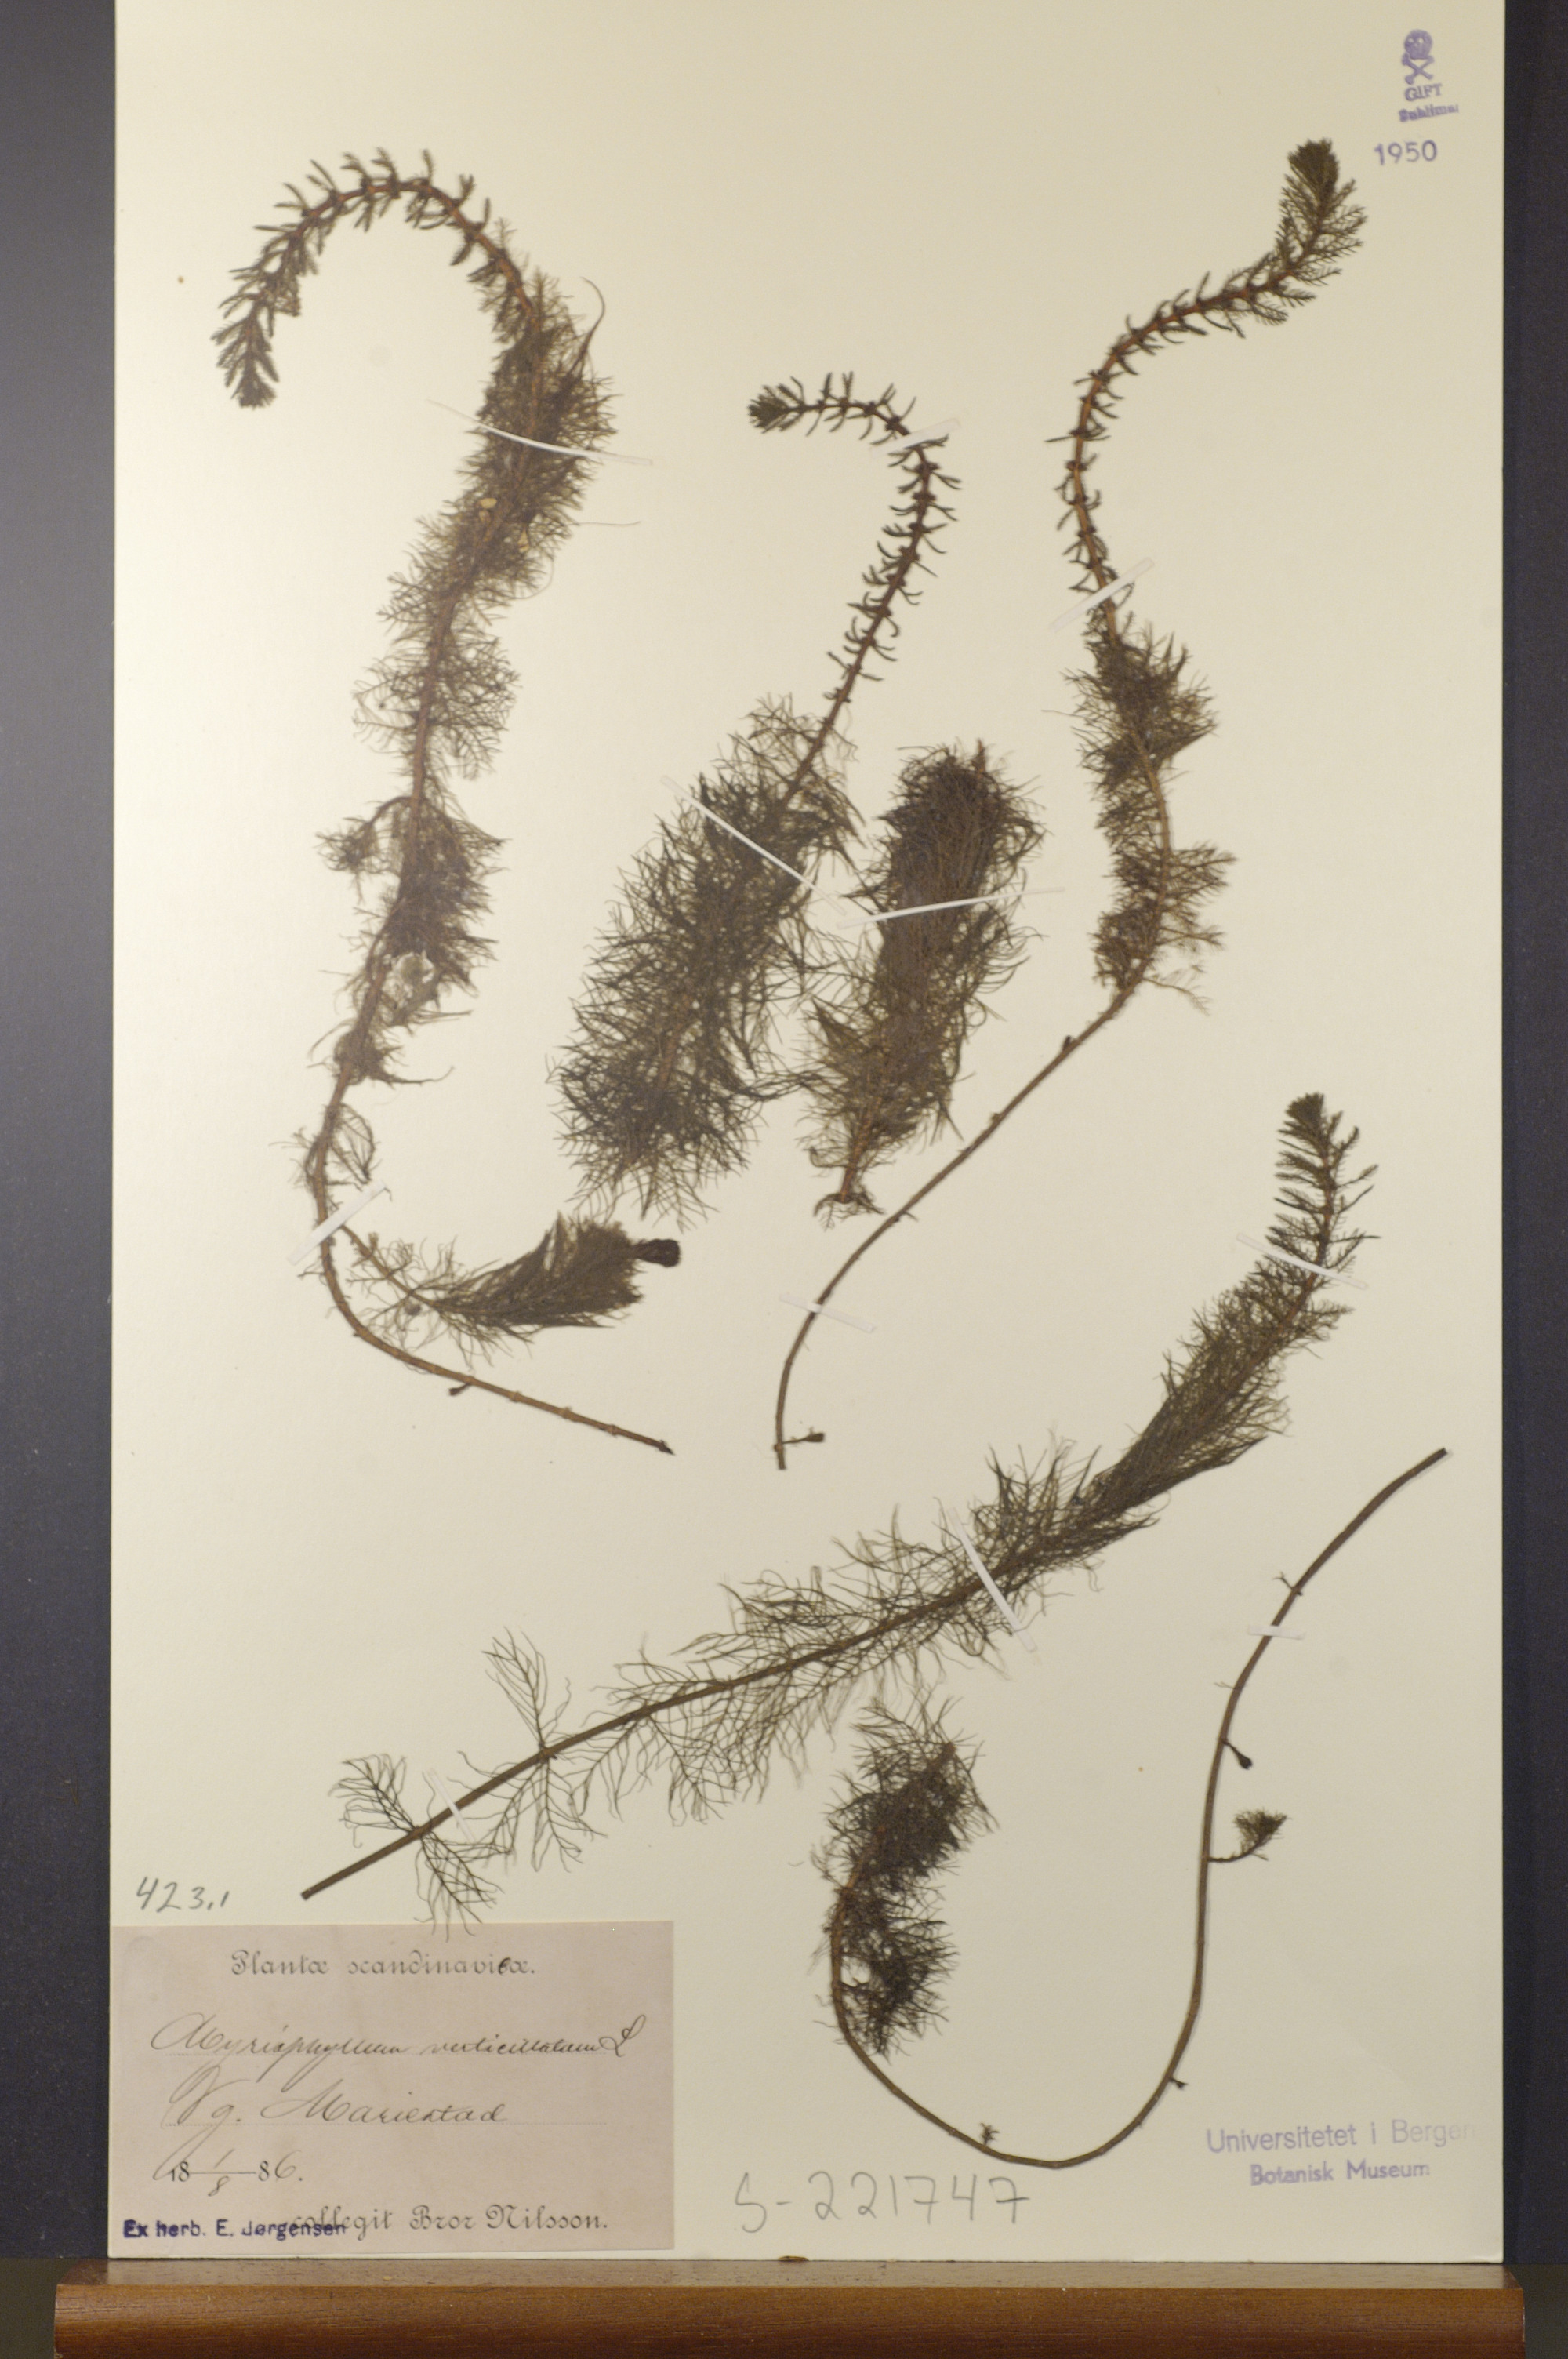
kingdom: Plantae
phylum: Tracheophyta
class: Magnoliopsida
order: Saxifragales
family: Haloragaceae
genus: Myriophyllum
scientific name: Myriophyllum verticillatum
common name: Whorled water-milfoil
